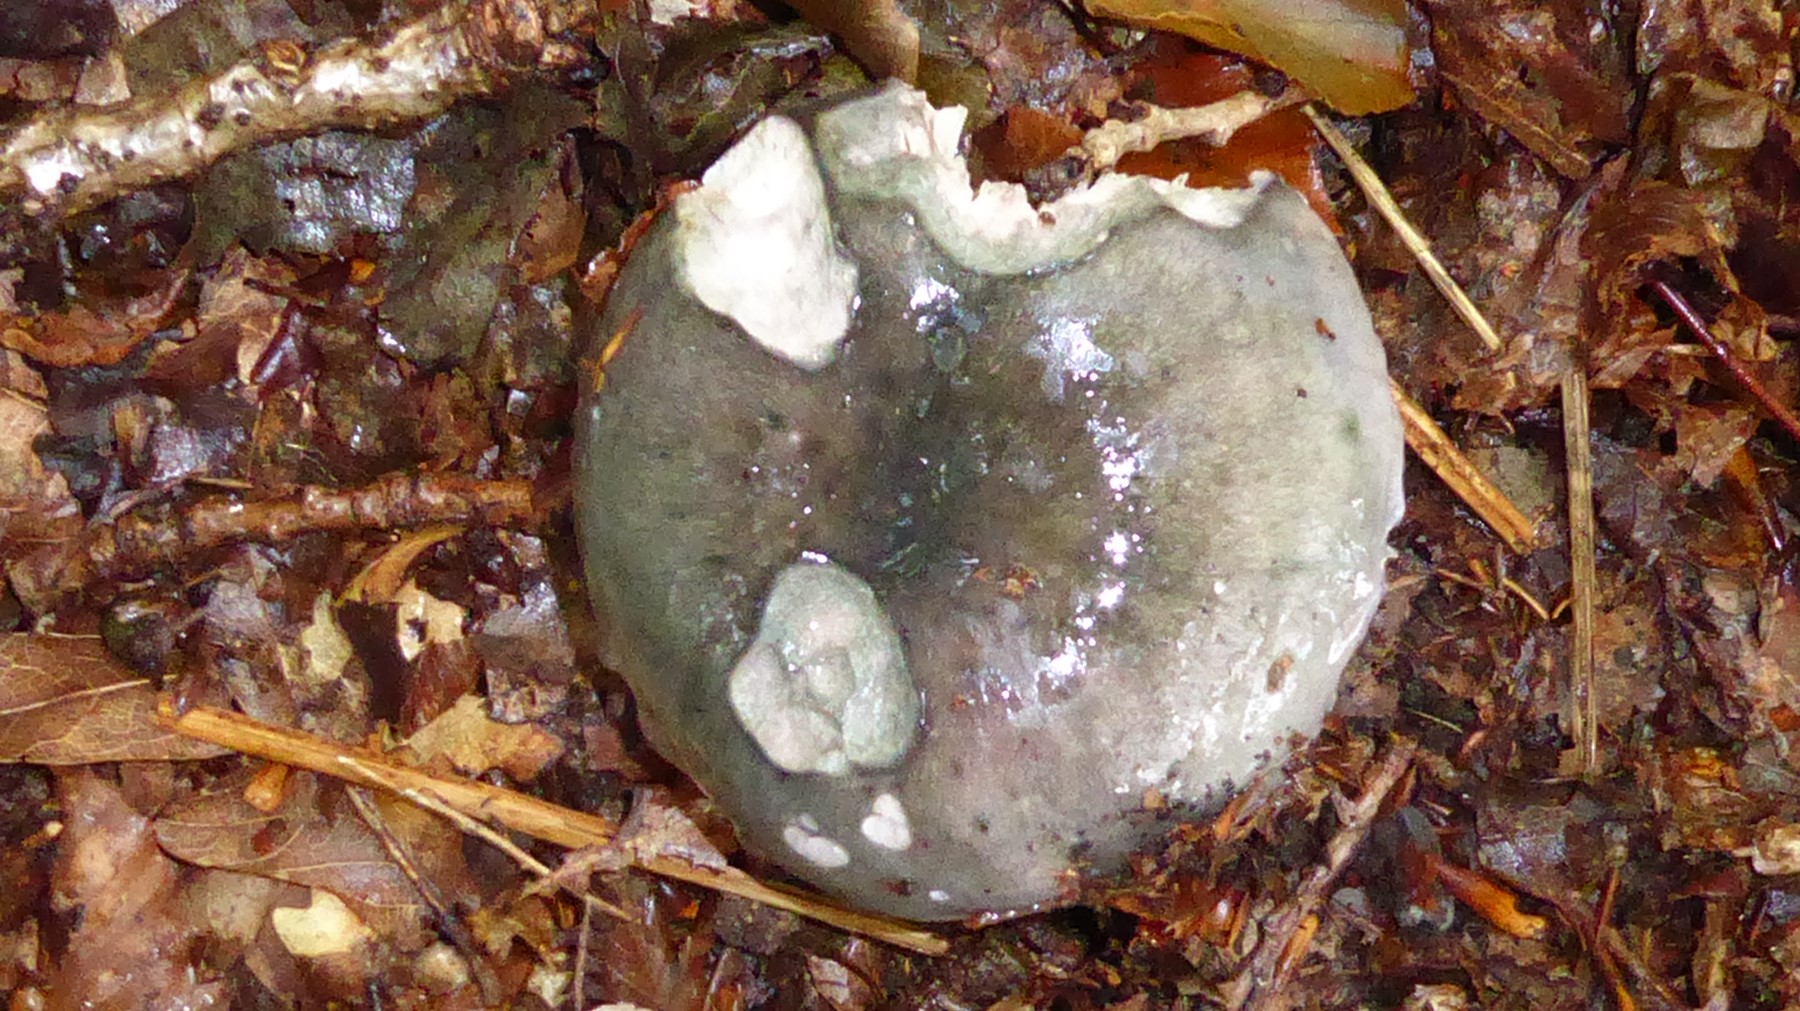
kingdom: Fungi
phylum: Basidiomycota
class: Agaricomycetes
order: Russulales
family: Russulaceae
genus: Russula
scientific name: Russula
